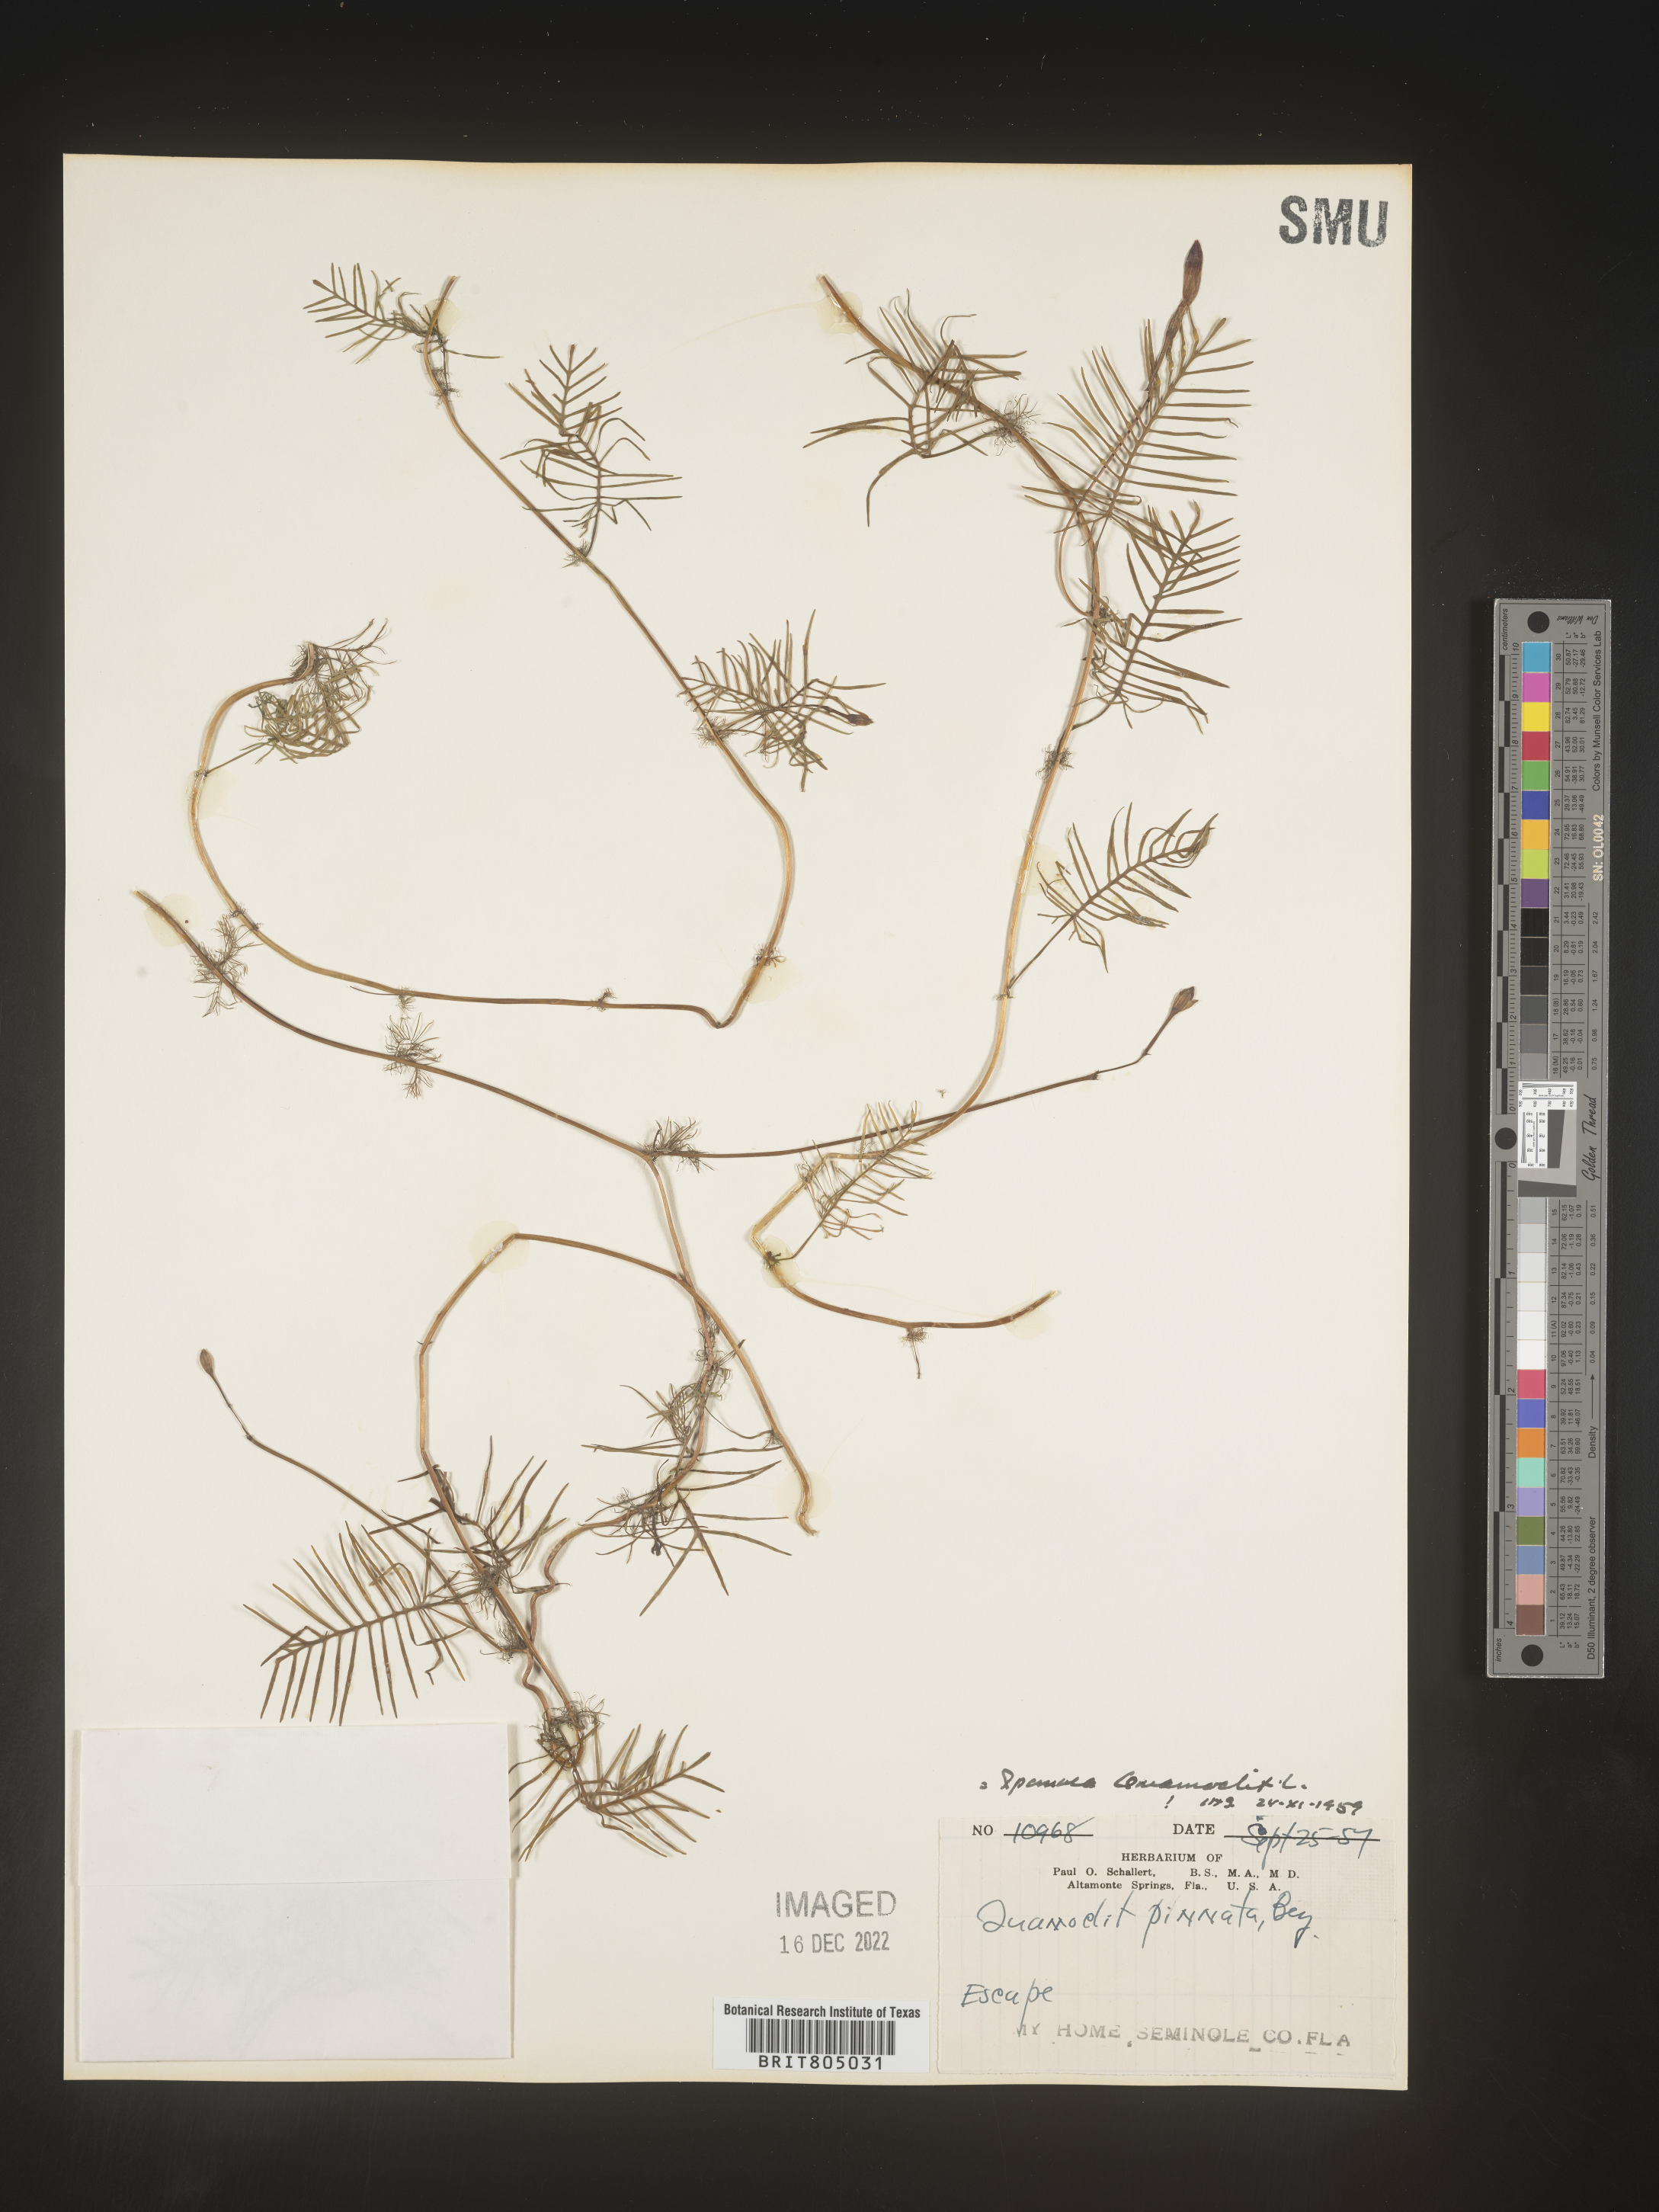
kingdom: Plantae
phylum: Tracheophyta
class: Magnoliopsida
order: Solanales
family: Convolvulaceae
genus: Ipomoea
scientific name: Ipomoea quamoclit
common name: Cypress vine
